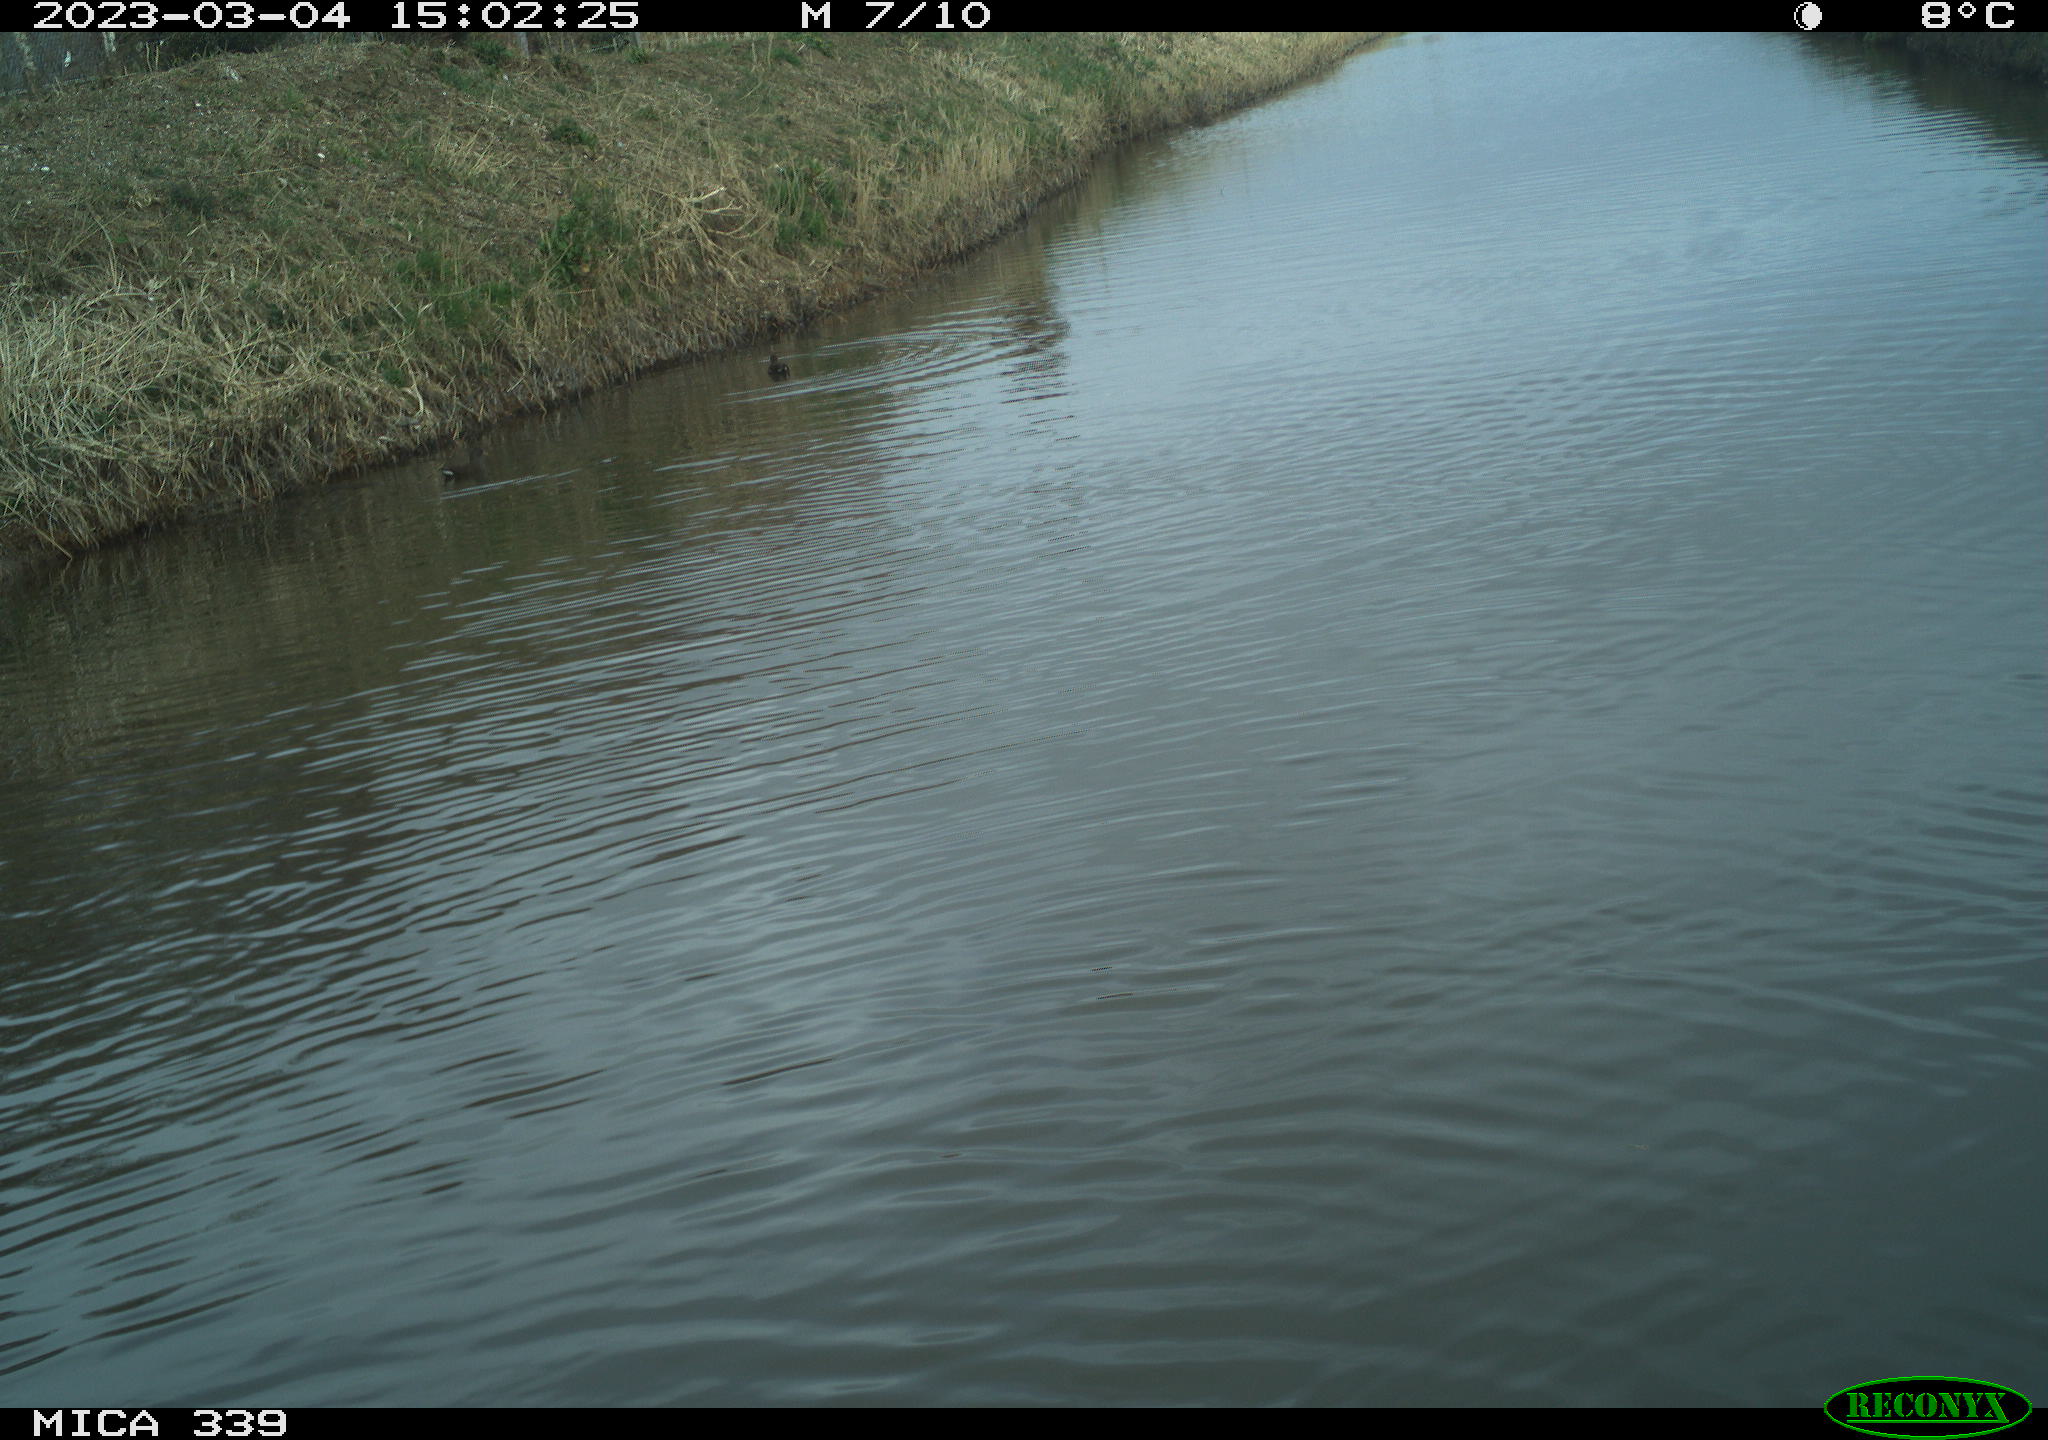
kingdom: Animalia
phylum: Chordata
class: Aves
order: Gruiformes
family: Rallidae
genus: Gallinula
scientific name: Gallinula chloropus
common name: Common moorhen
